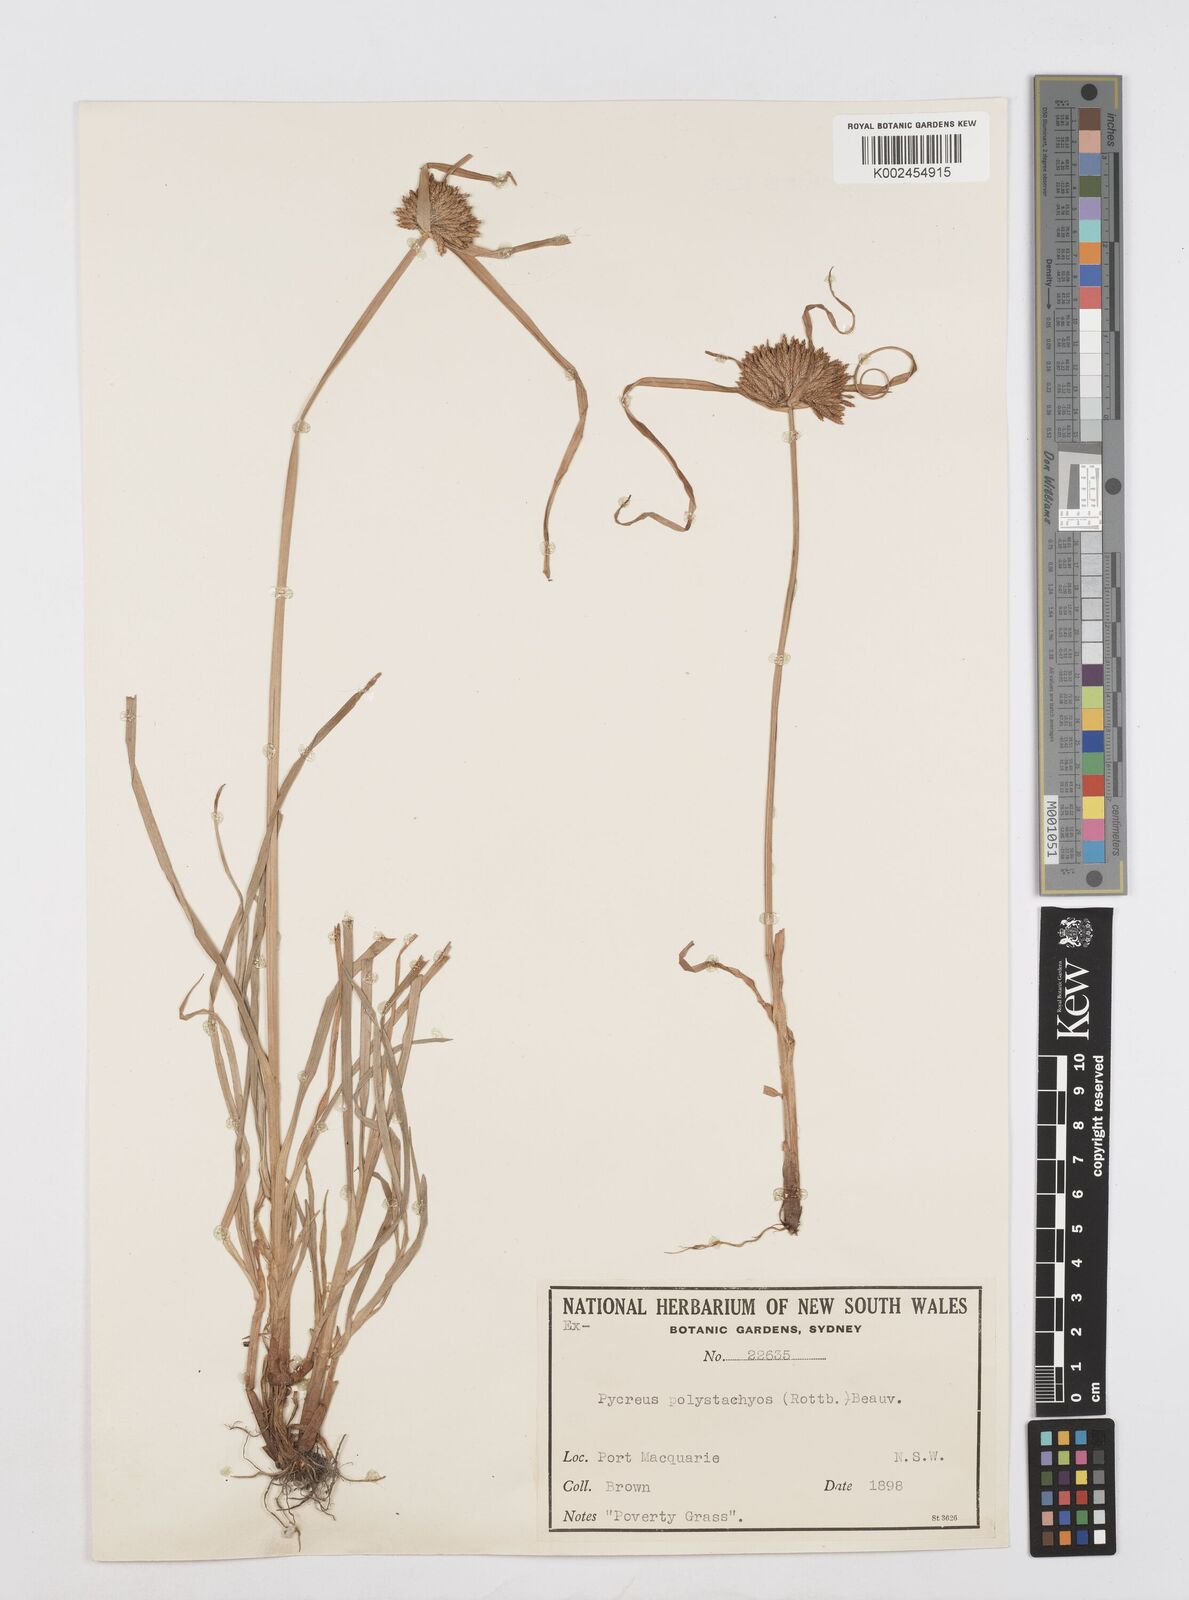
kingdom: Plantae
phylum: Tracheophyta
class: Liliopsida
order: Poales
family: Cyperaceae
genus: Cyperus
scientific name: Cyperus polystachyos
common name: Bunchy flat sedge
